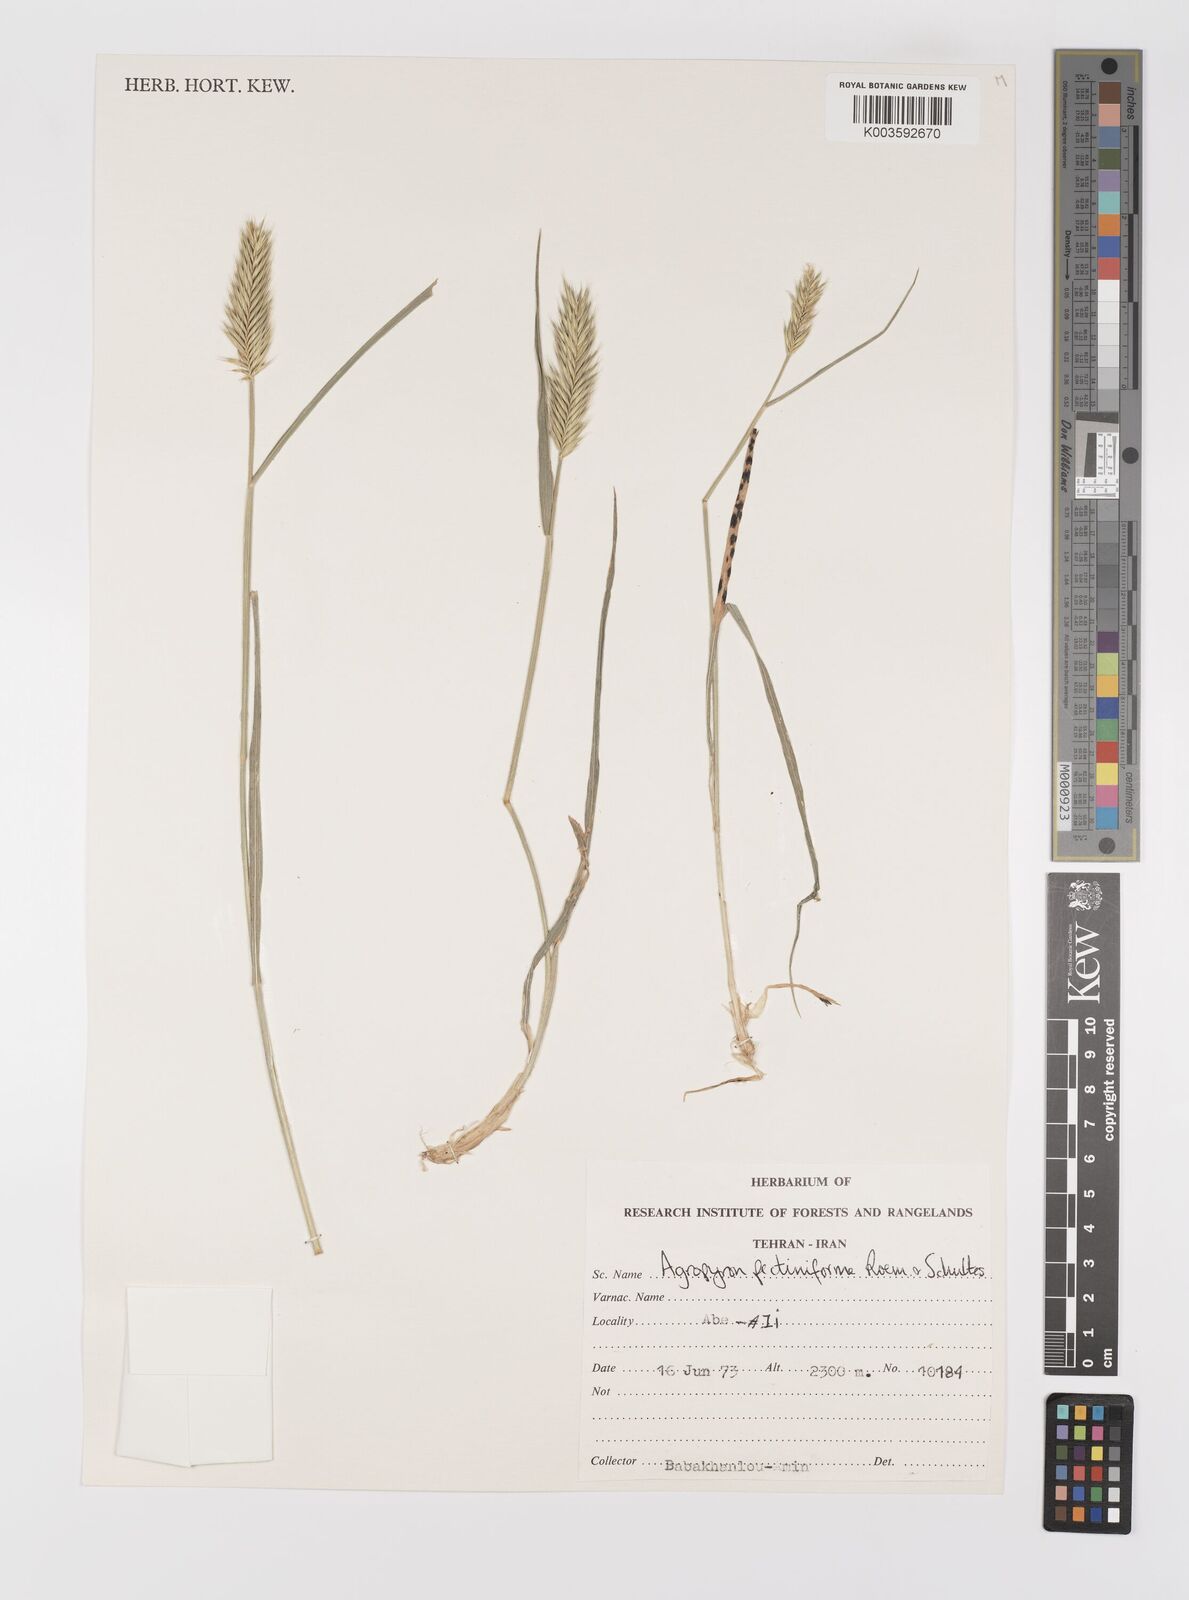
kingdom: Plantae
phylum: Tracheophyta
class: Liliopsida
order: Poales
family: Poaceae
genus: Agropyron
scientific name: Agropyron
